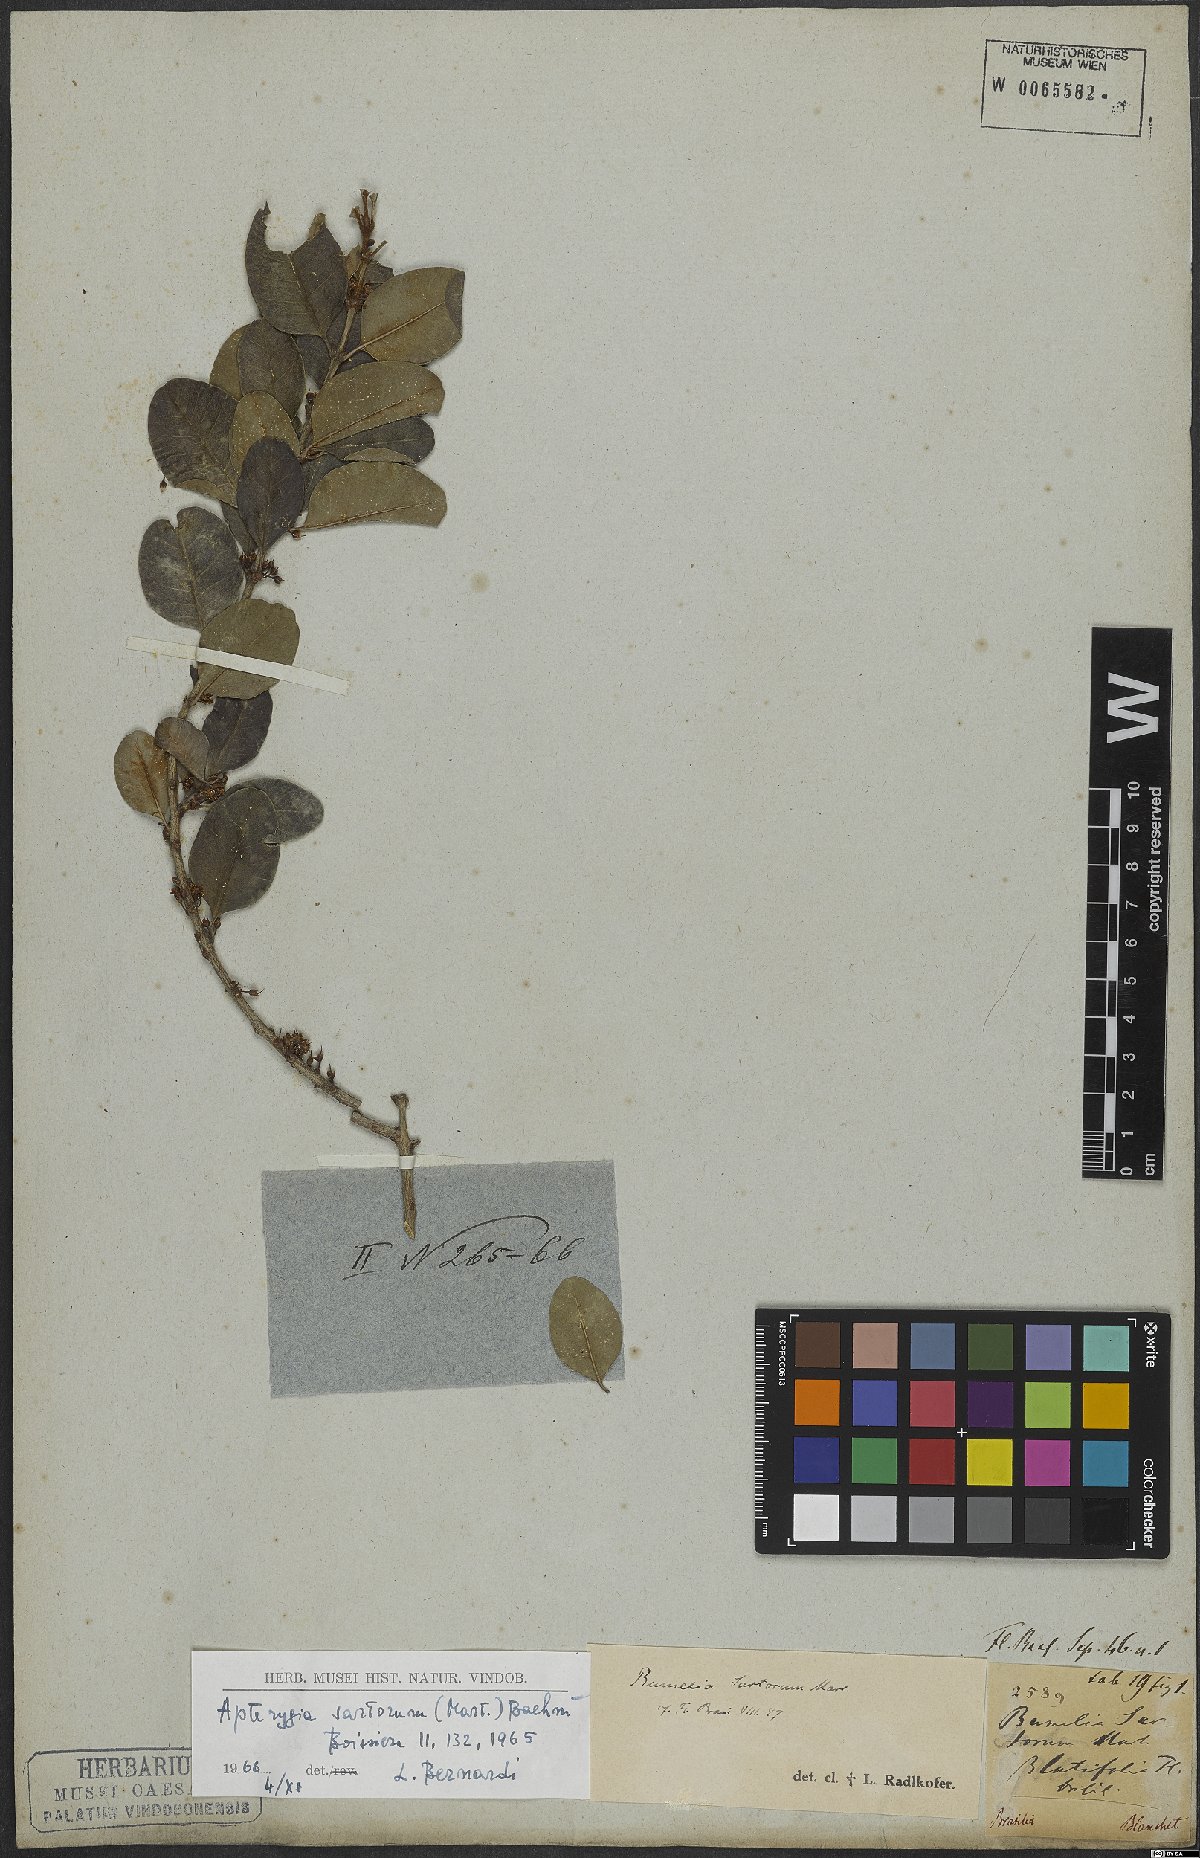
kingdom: Plantae
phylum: Tracheophyta
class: Magnoliopsida
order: Ericales
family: Sapotaceae
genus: Sideroxylon
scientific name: Sideroxylon obtusifolium
